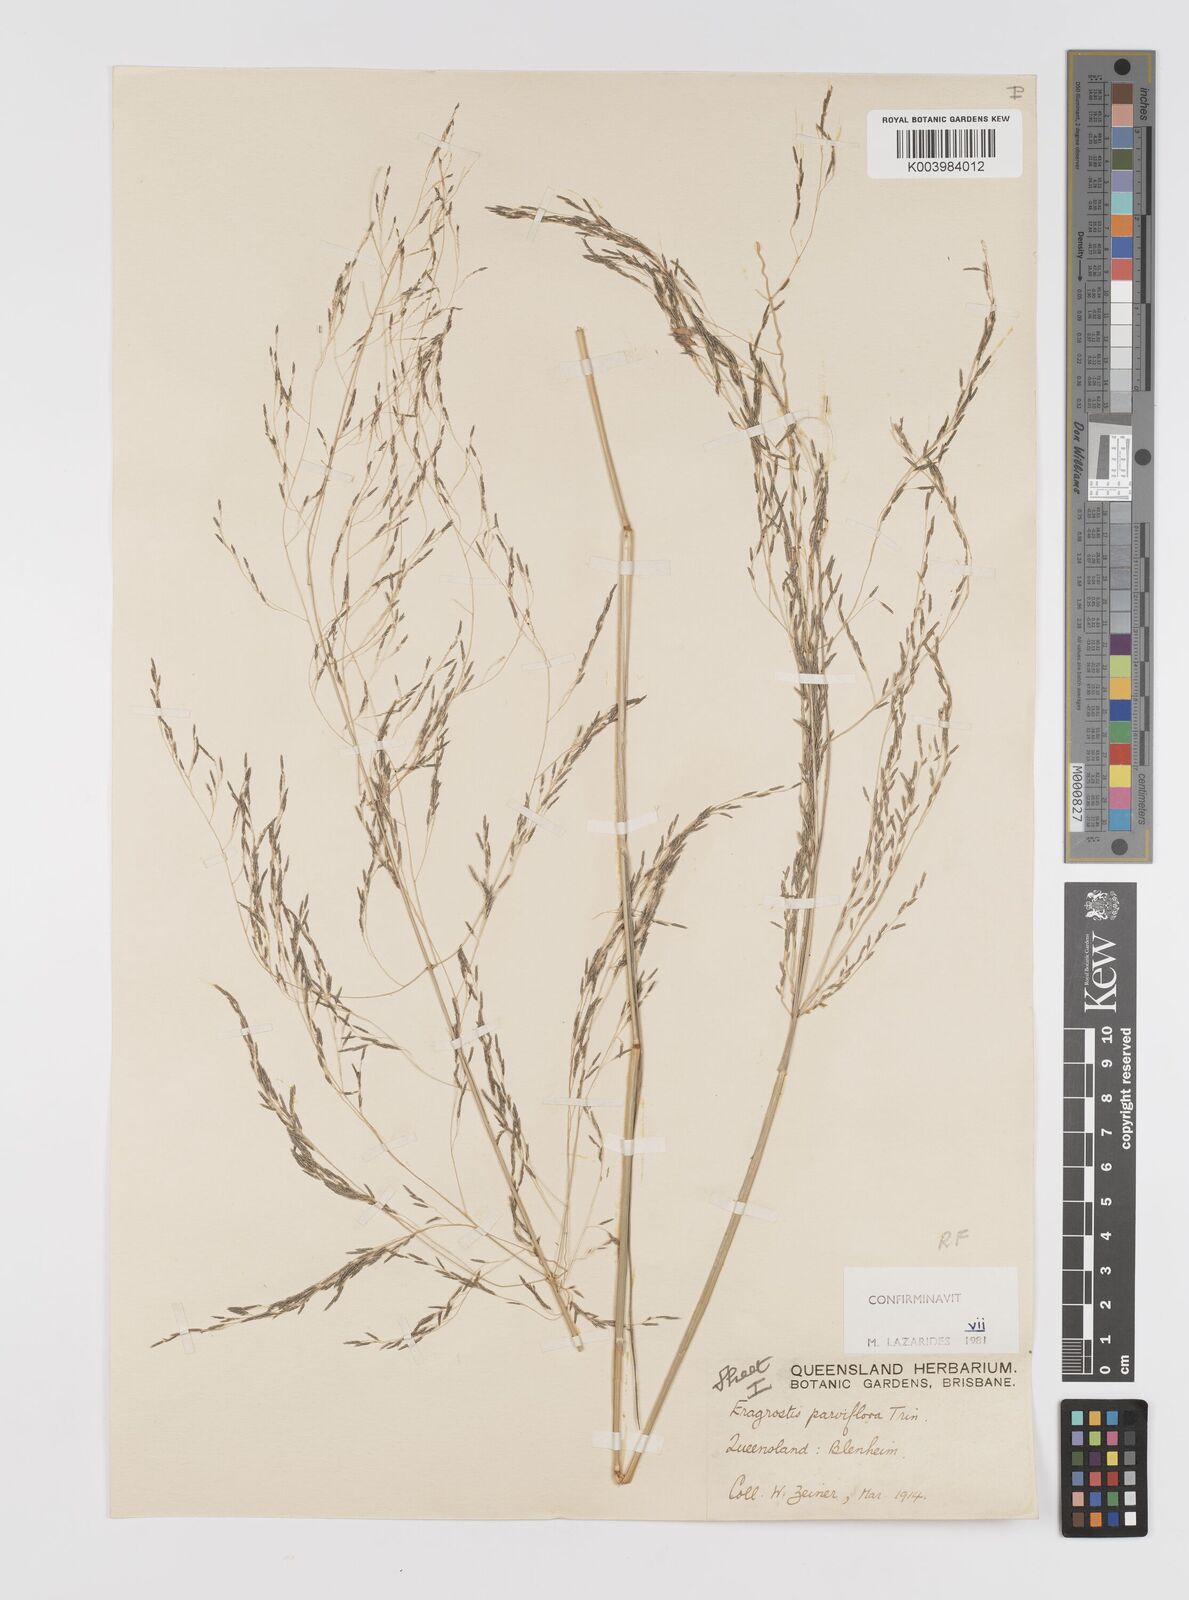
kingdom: Plantae
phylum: Tracheophyta
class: Liliopsida
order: Poales
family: Poaceae
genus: Eragrostis
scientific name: Eragrostis parviflora
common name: Weeping love-grass
